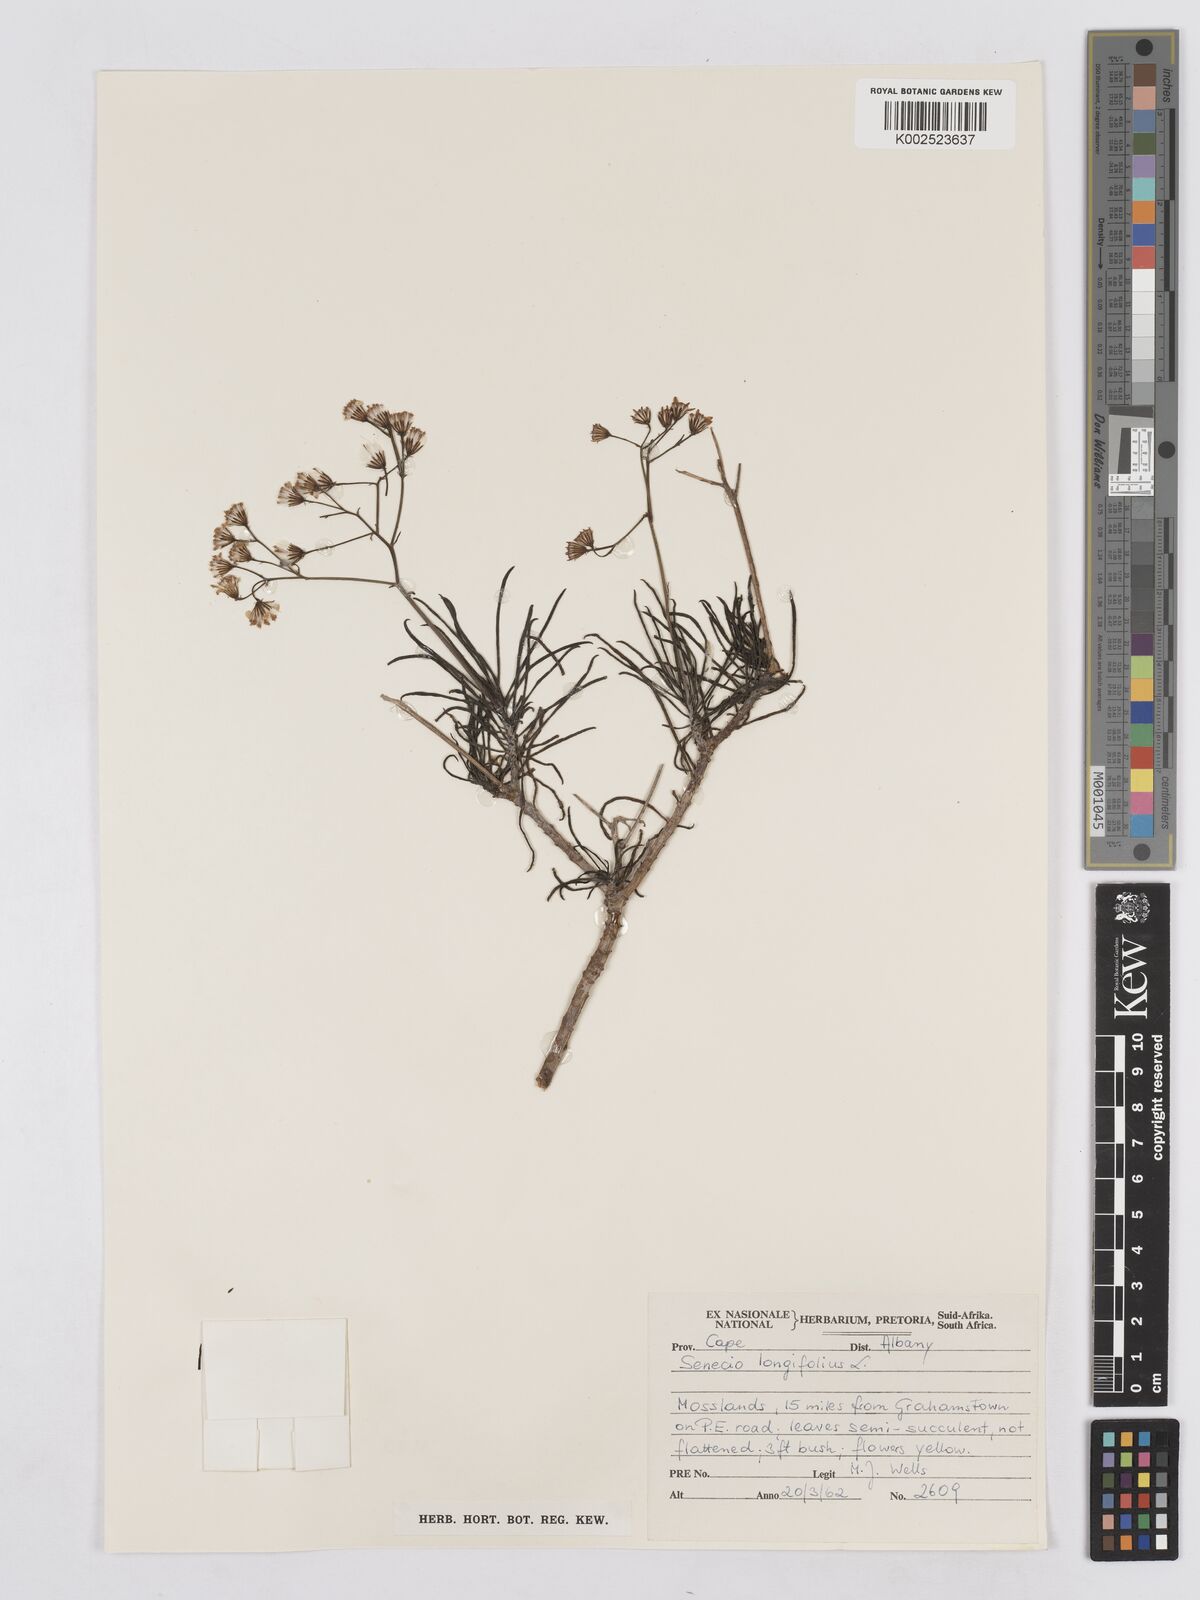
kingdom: Plantae
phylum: Tracheophyta
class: Magnoliopsida
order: Asterales
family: Asteraceae
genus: Senecio
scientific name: Senecio linifolius
